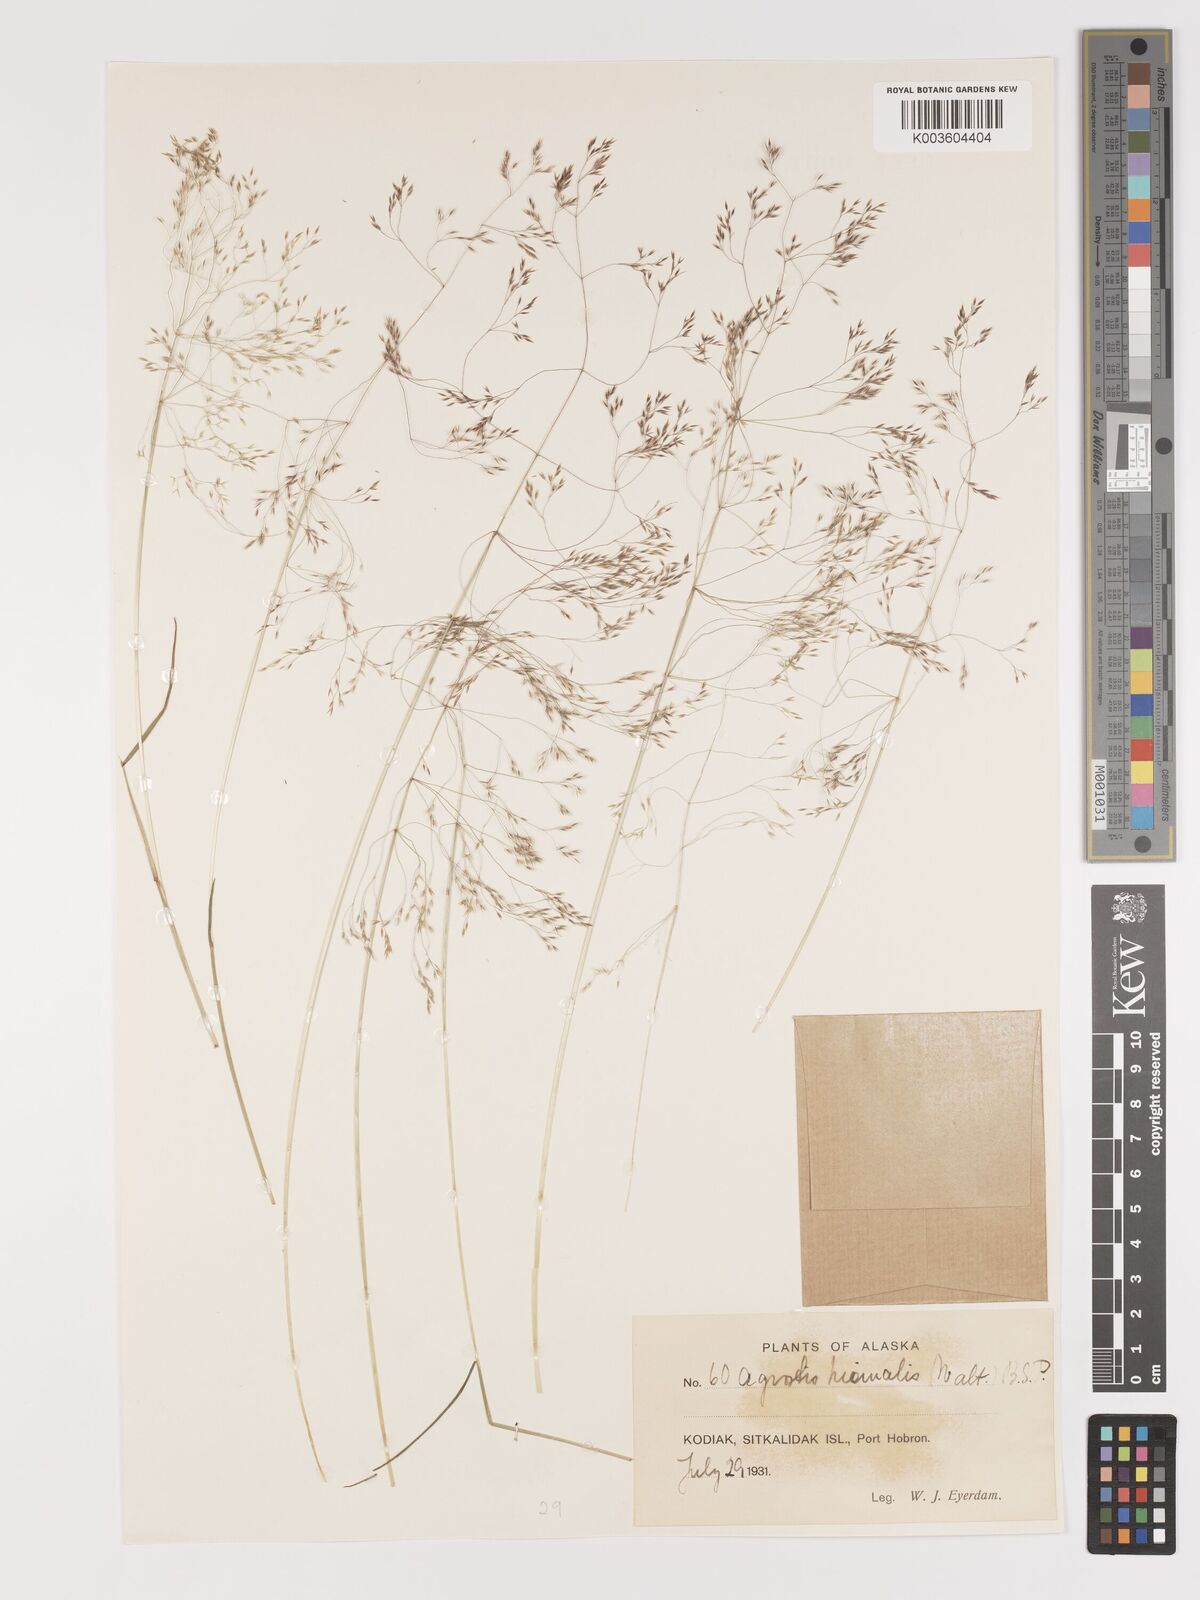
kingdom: Plantae
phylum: Tracheophyta
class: Liliopsida
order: Poales
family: Poaceae
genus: Agrostis
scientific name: Agrostis hyemalis
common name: Small bent
